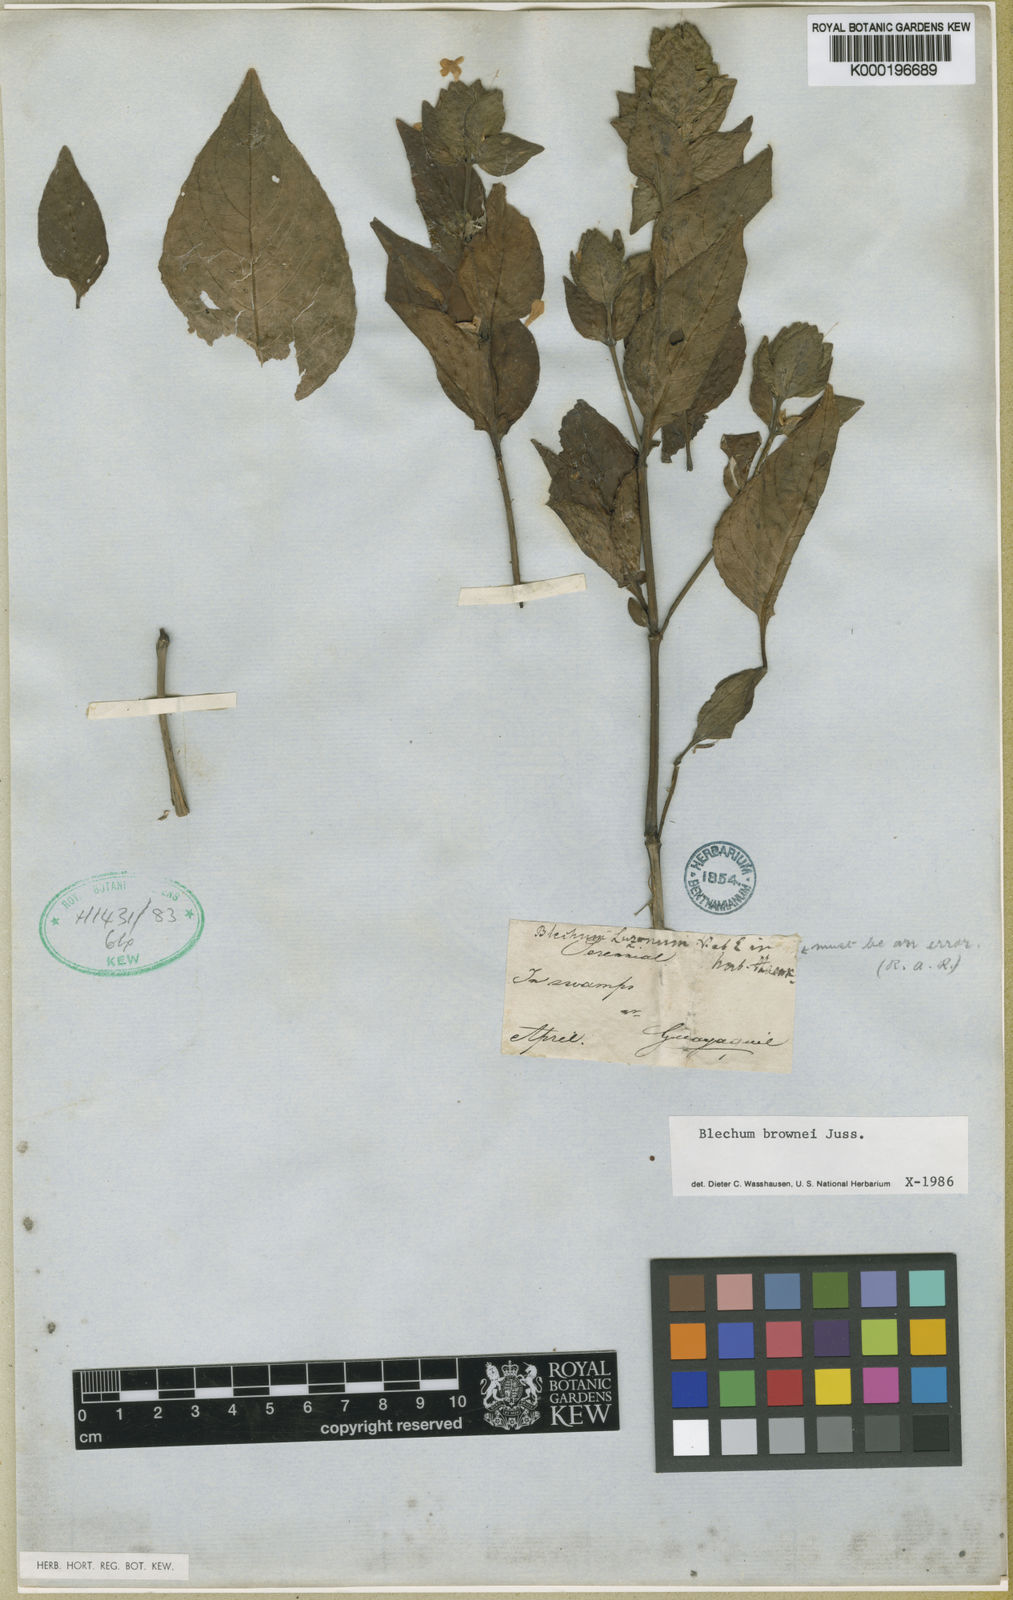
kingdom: Plantae
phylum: Tracheophyta
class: Magnoliopsida
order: Lamiales
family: Acanthaceae
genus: Ruellia
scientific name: Ruellia blechum
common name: Browne's blechum
